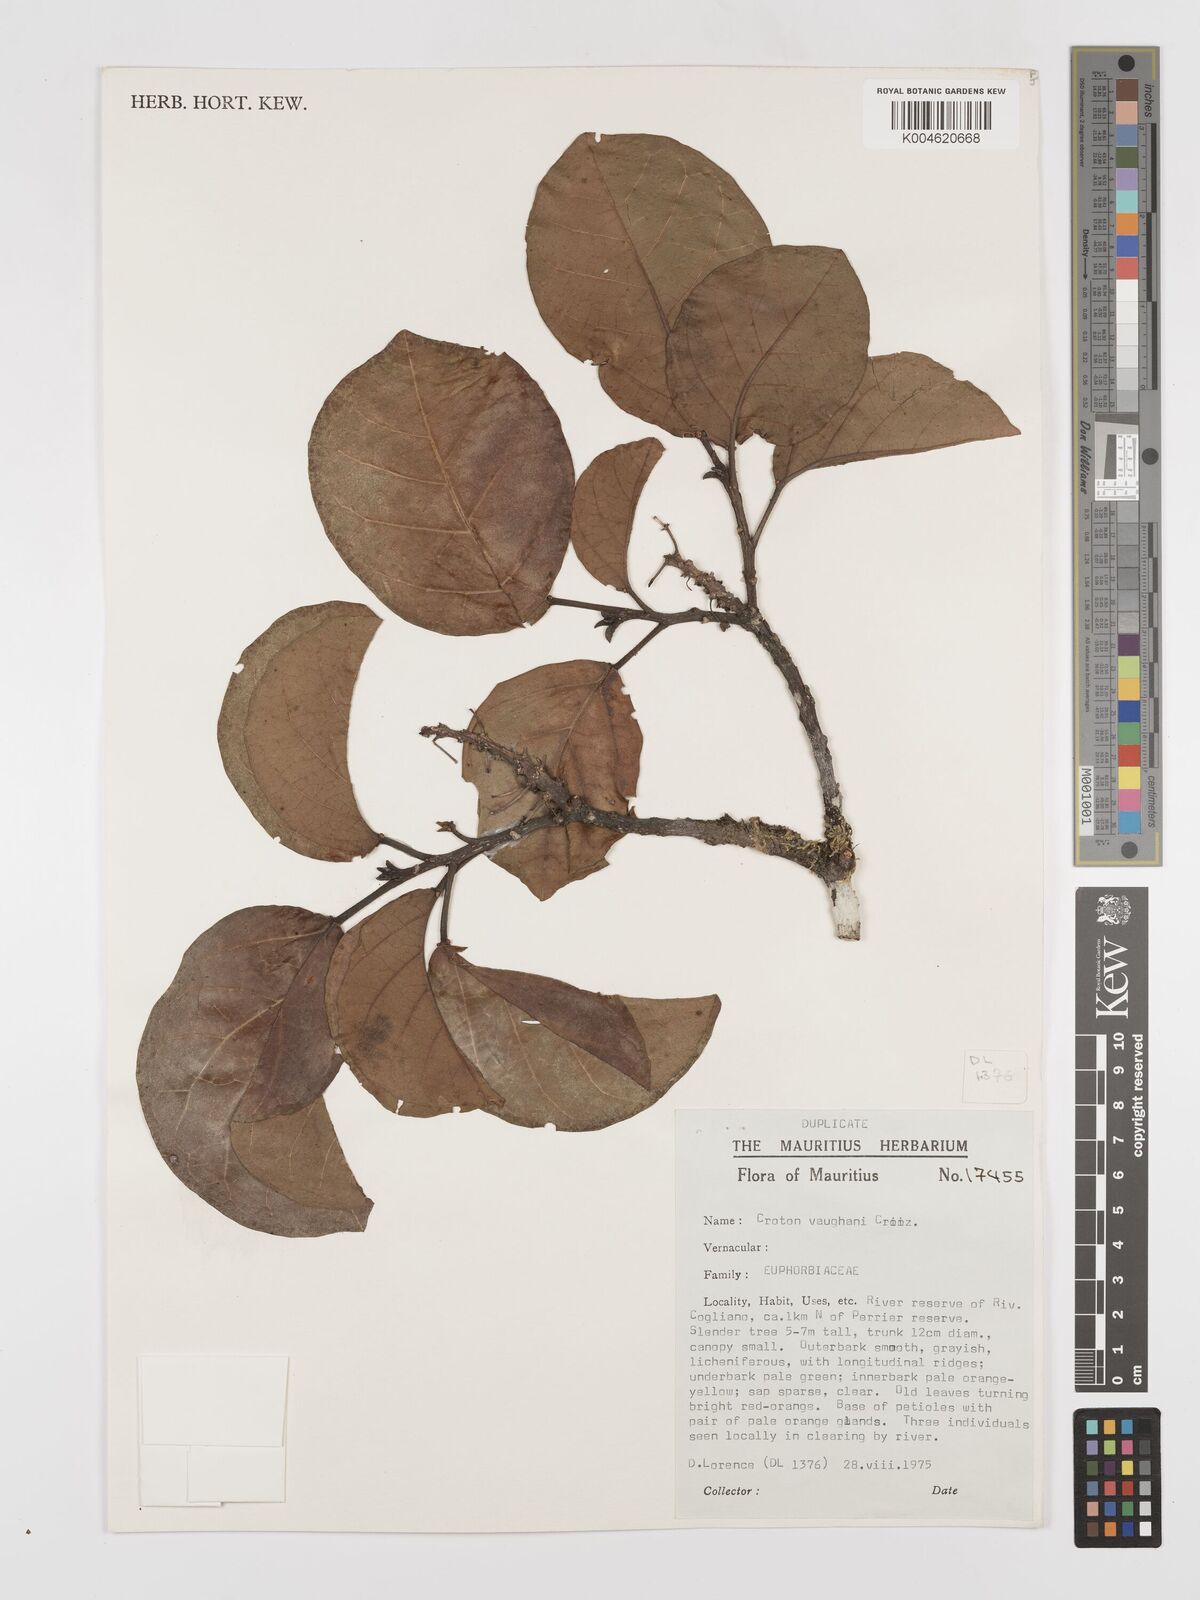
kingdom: Plantae
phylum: Tracheophyta
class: Magnoliopsida
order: Malpighiales
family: Euphorbiaceae
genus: Croton
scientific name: Croton vaughanii
